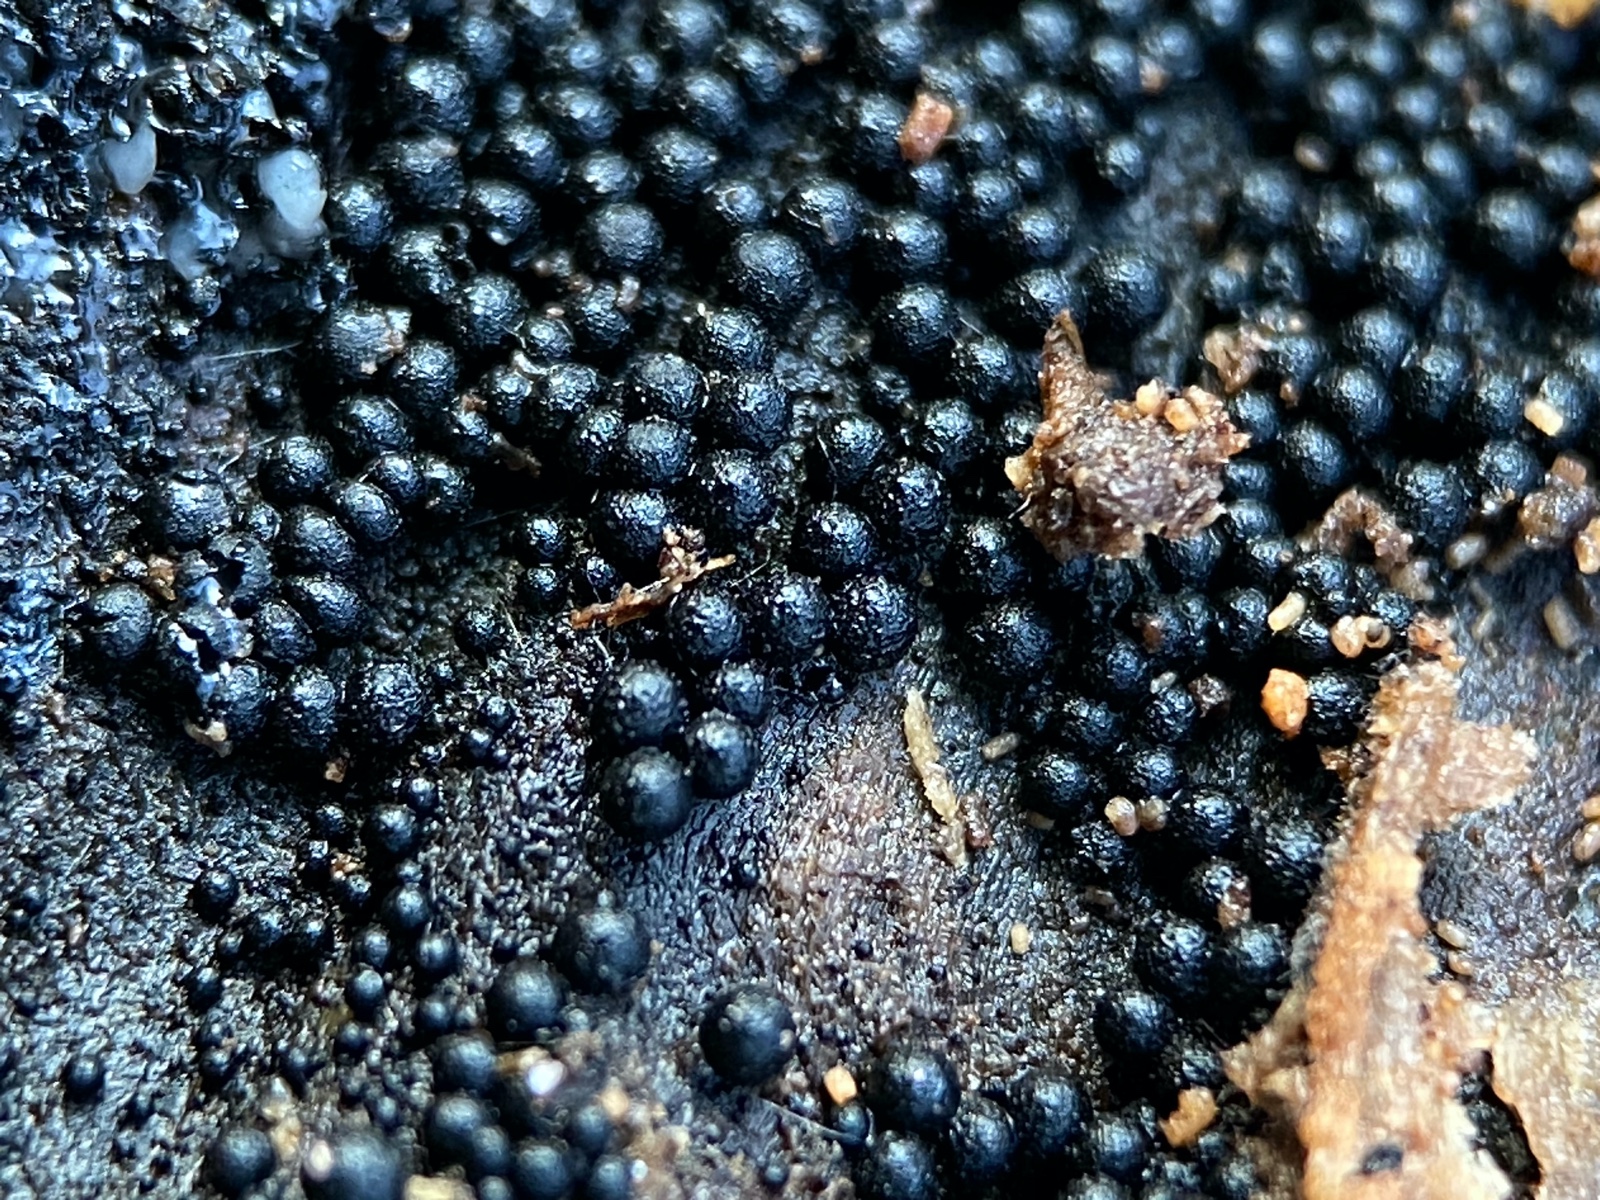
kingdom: Fungi
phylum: Ascomycota
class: Sordariomycetes
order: Sordariales
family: Helminthosphaeriaceae
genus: Ruzenia
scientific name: Ruzenia spermoides
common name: glat børstekerne
